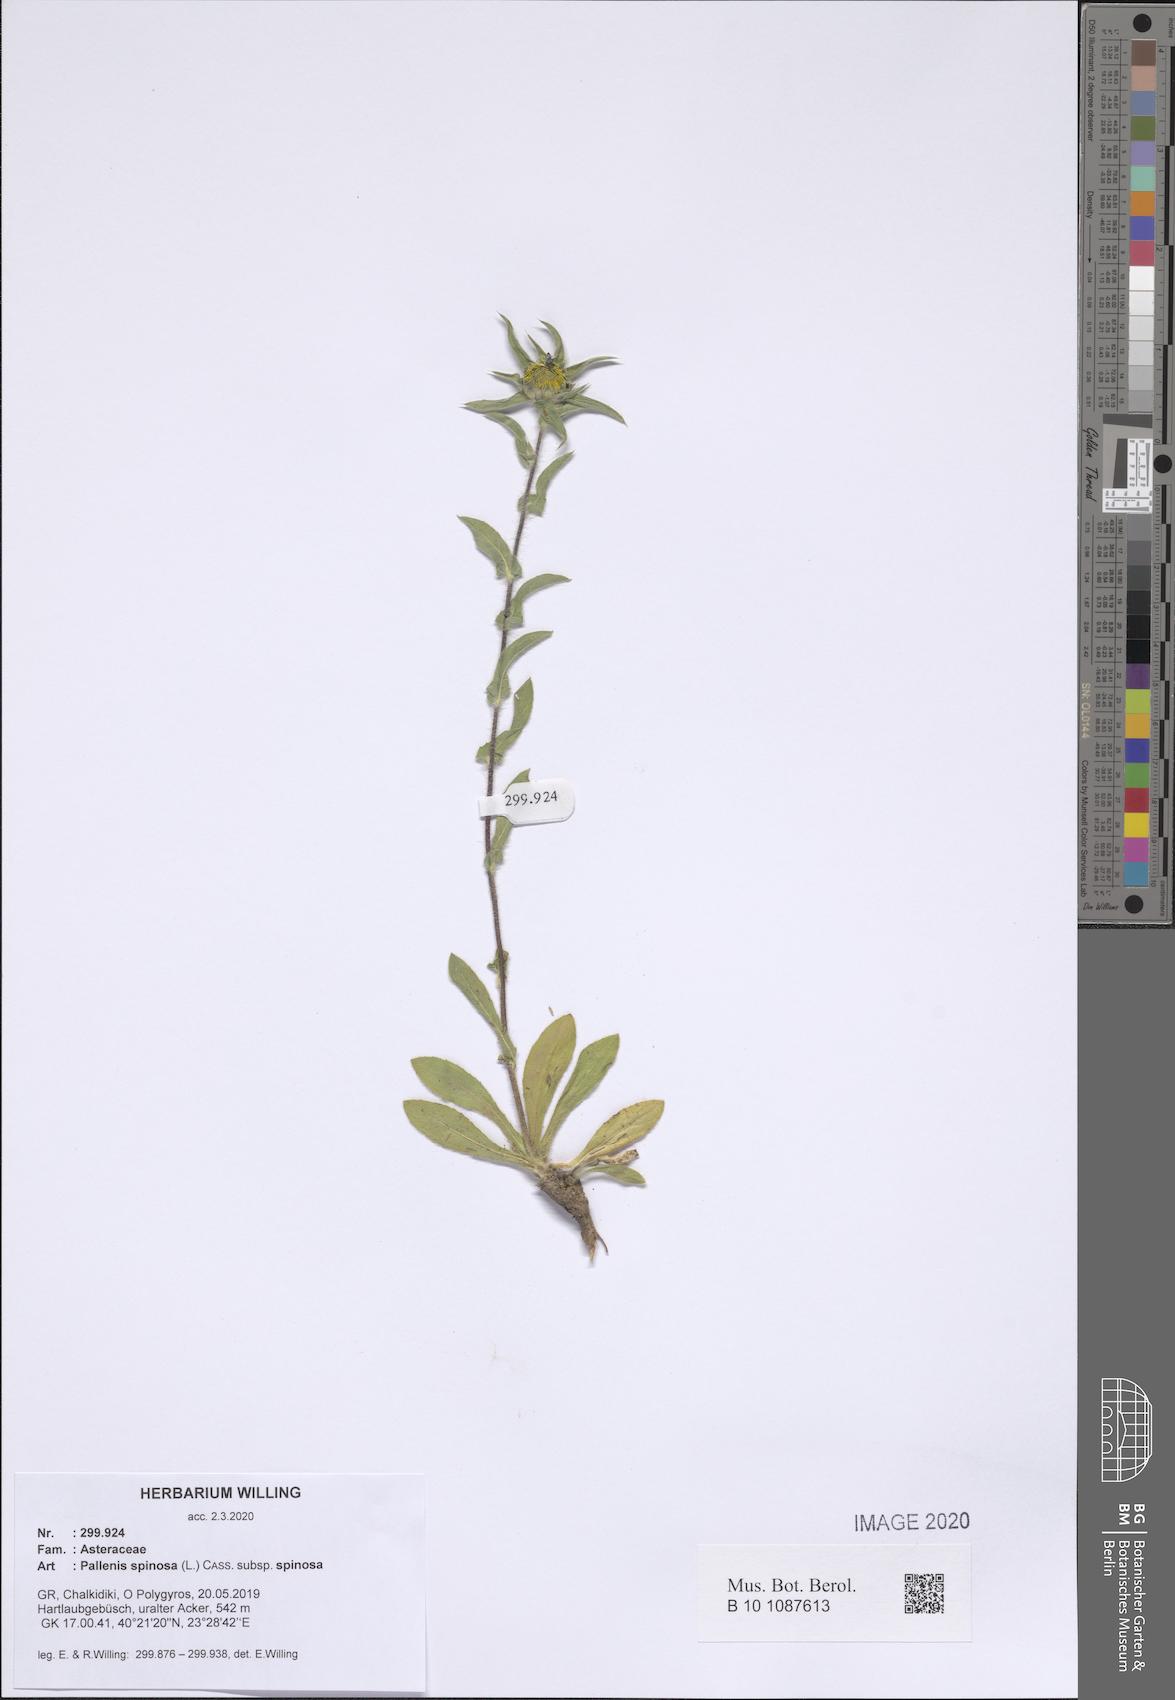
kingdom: Plantae
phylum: Tracheophyta
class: Magnoliopsida
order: Asterales
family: Asteraceae
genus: Pallenis
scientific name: Pallenis spinosa
